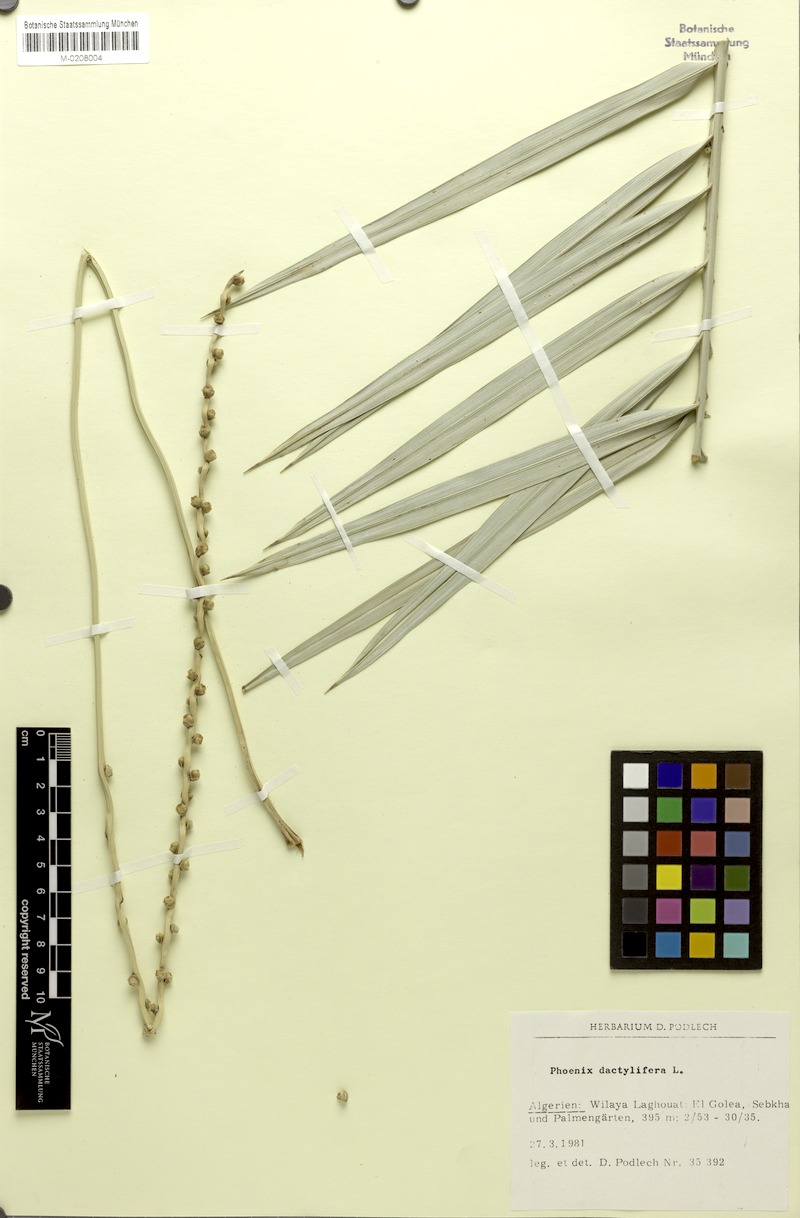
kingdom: Plantae
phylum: Tracheophyta
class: Liliopsida
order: Arecales
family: Arecaceae
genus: Phoenix
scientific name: Phoenix dactylifera
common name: Date palm
